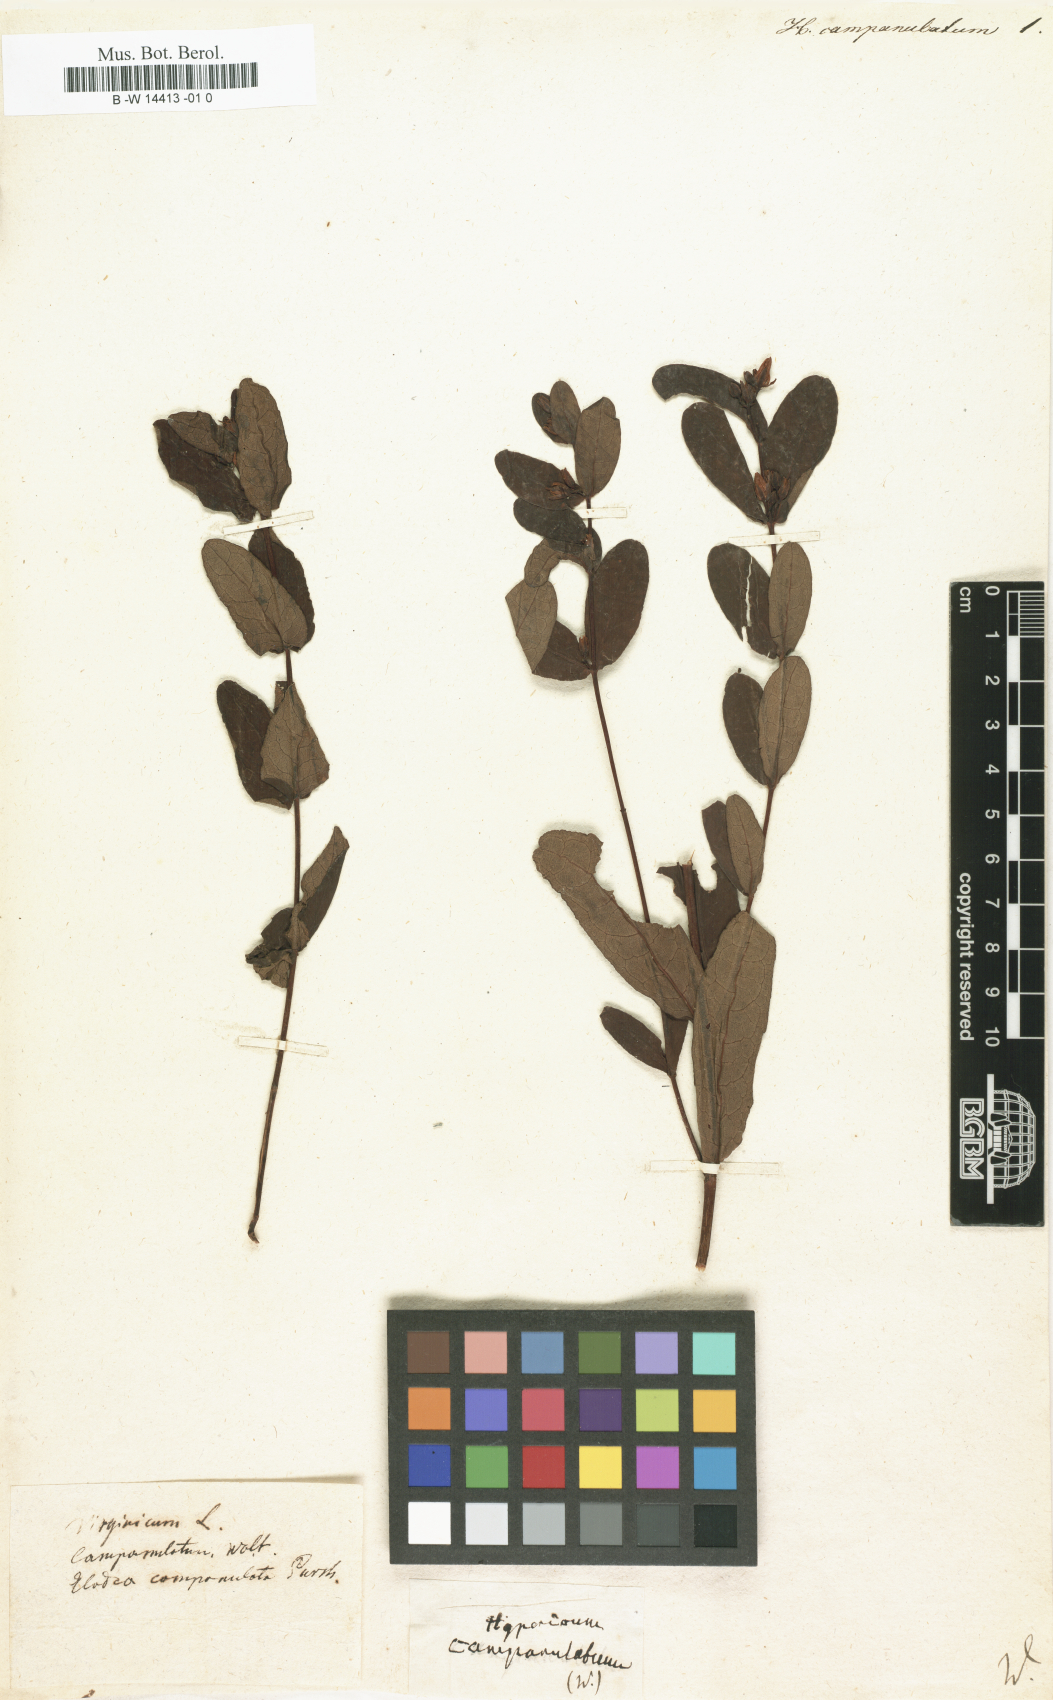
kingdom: Plantae
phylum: Tracheophyta
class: Magnoliopsida
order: Malpighiales
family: Hypericaceae
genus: Triadenum
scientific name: Triadenum virginicum
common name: Marsh st. john's-wort
